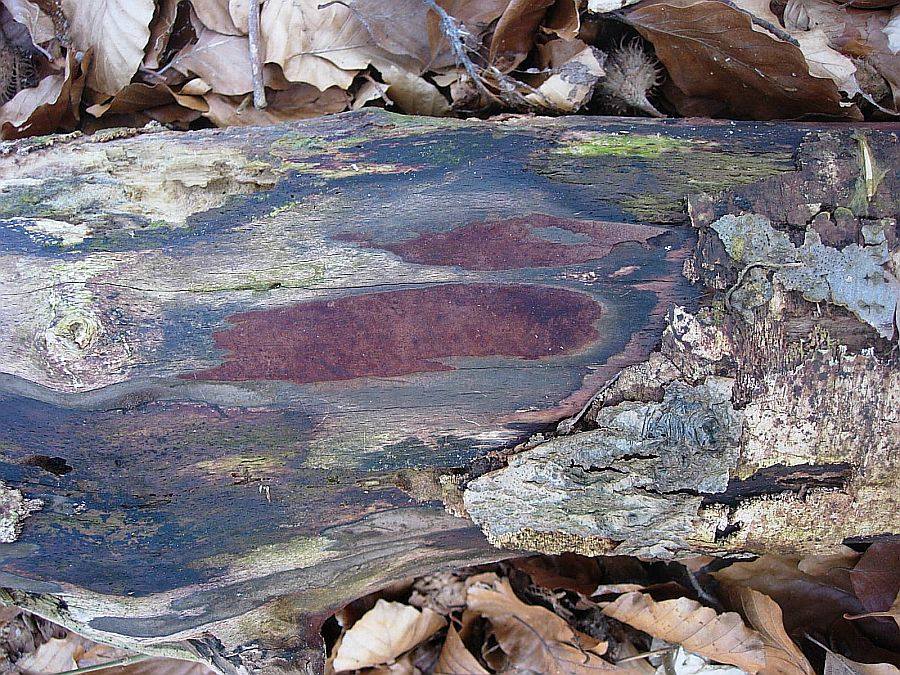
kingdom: Fungi
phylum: Ascomycota
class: Sordariomycetes
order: Xylariales
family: Hypoxylaceae
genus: Hypoxylon
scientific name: Hypoxylon macrocarpum
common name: skorpe-kulbær
